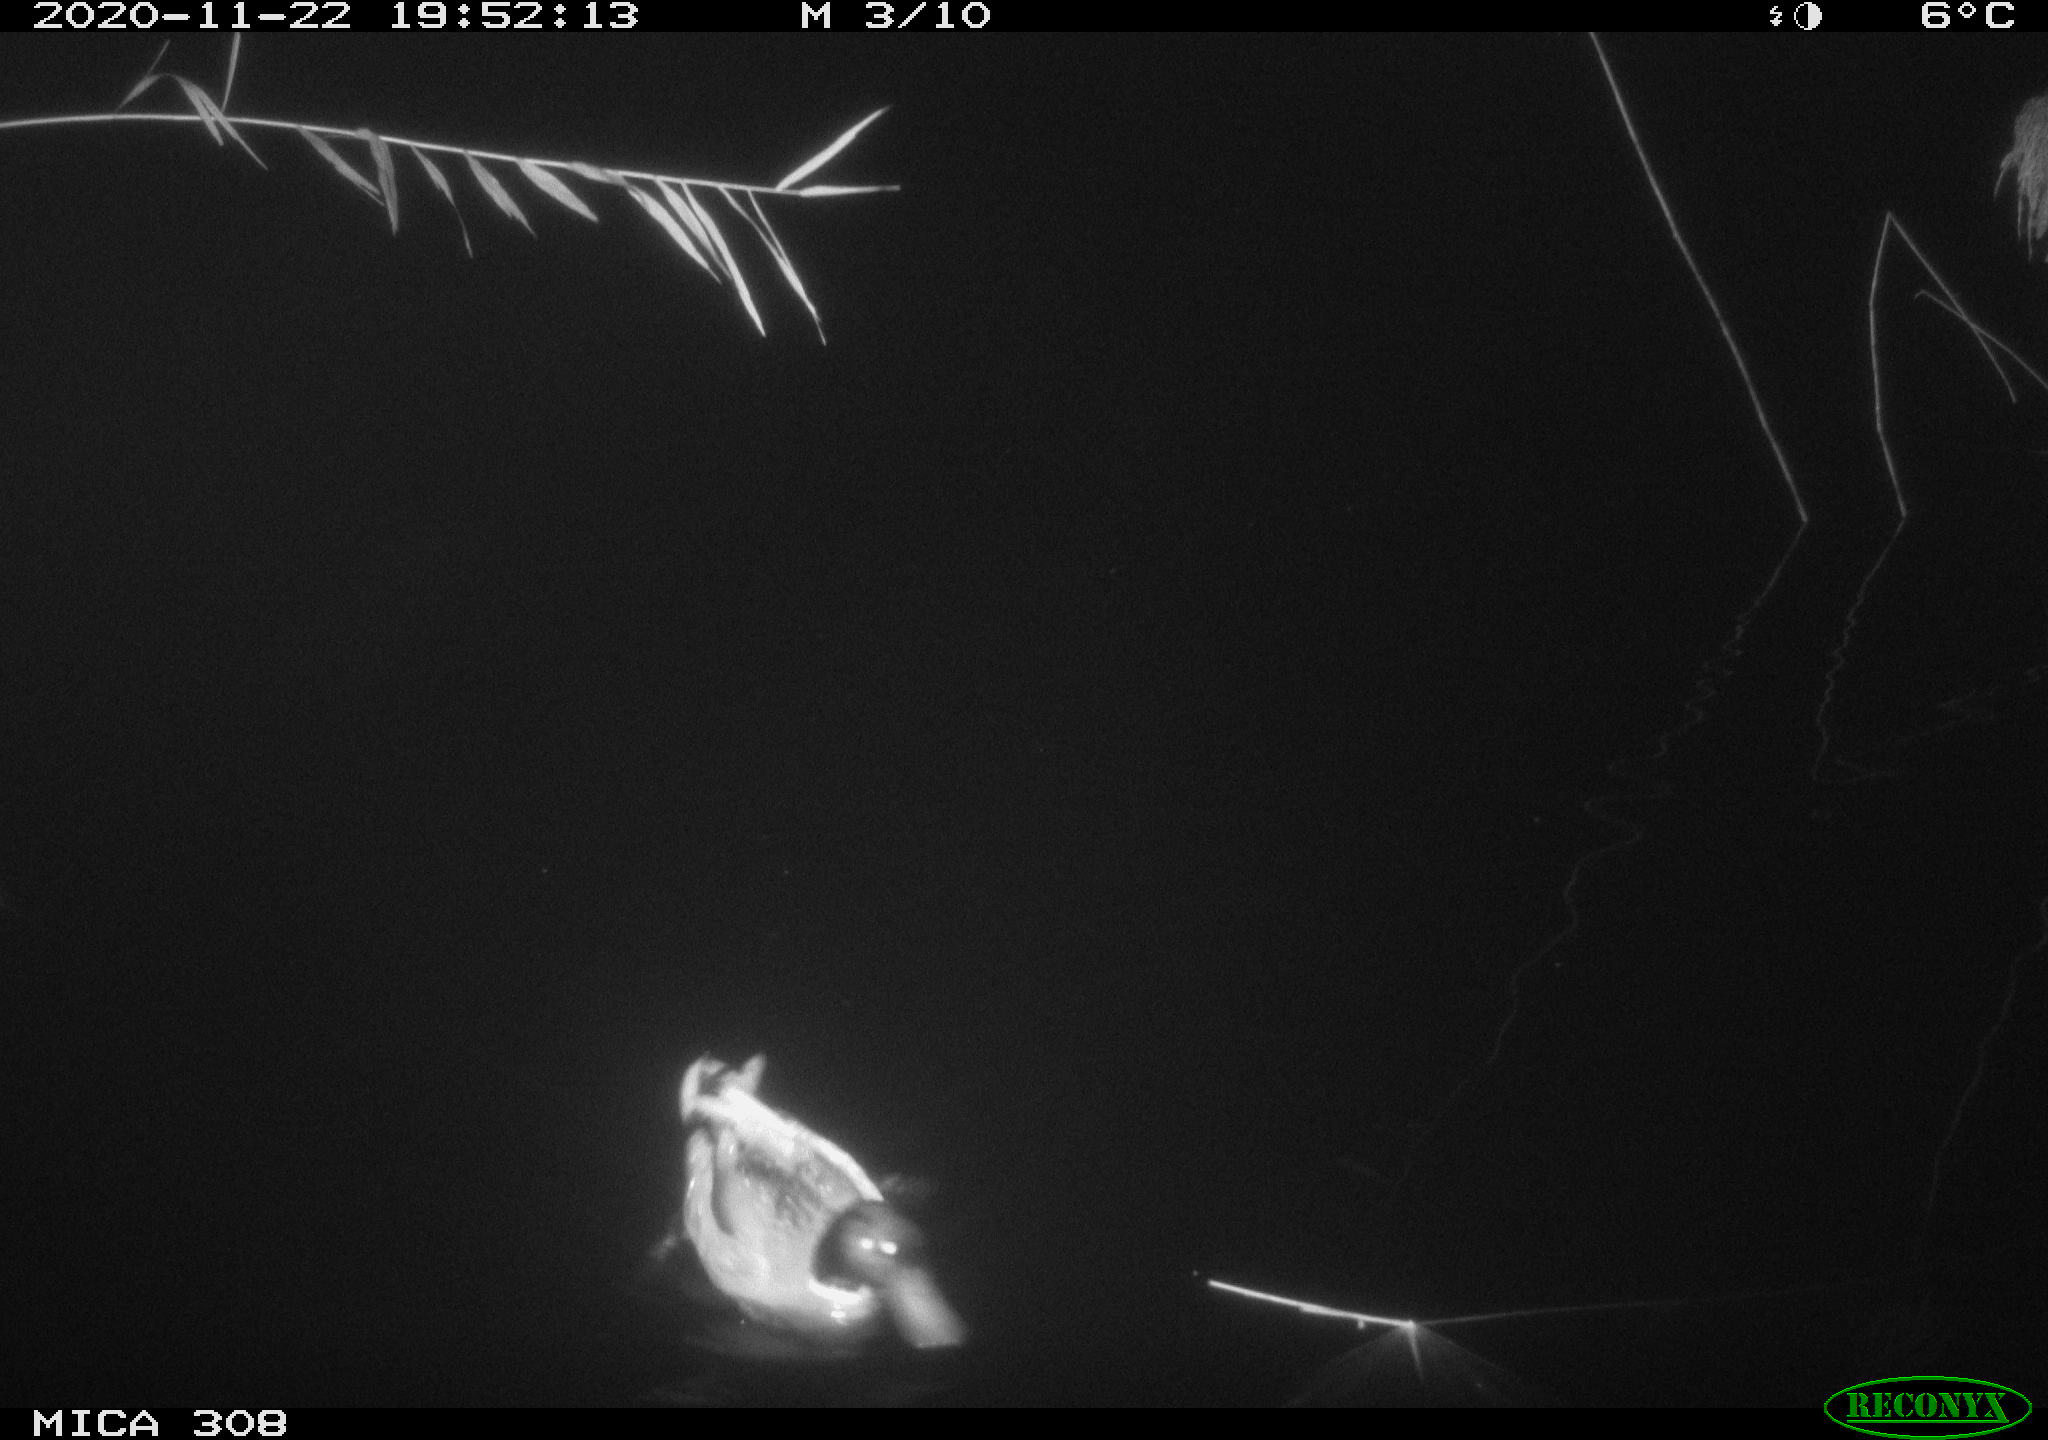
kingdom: Animalia
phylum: Chordata
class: Aves
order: Anseriformes
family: Anatidae
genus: Anas
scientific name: Anas platyrhynchos
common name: Mallard
